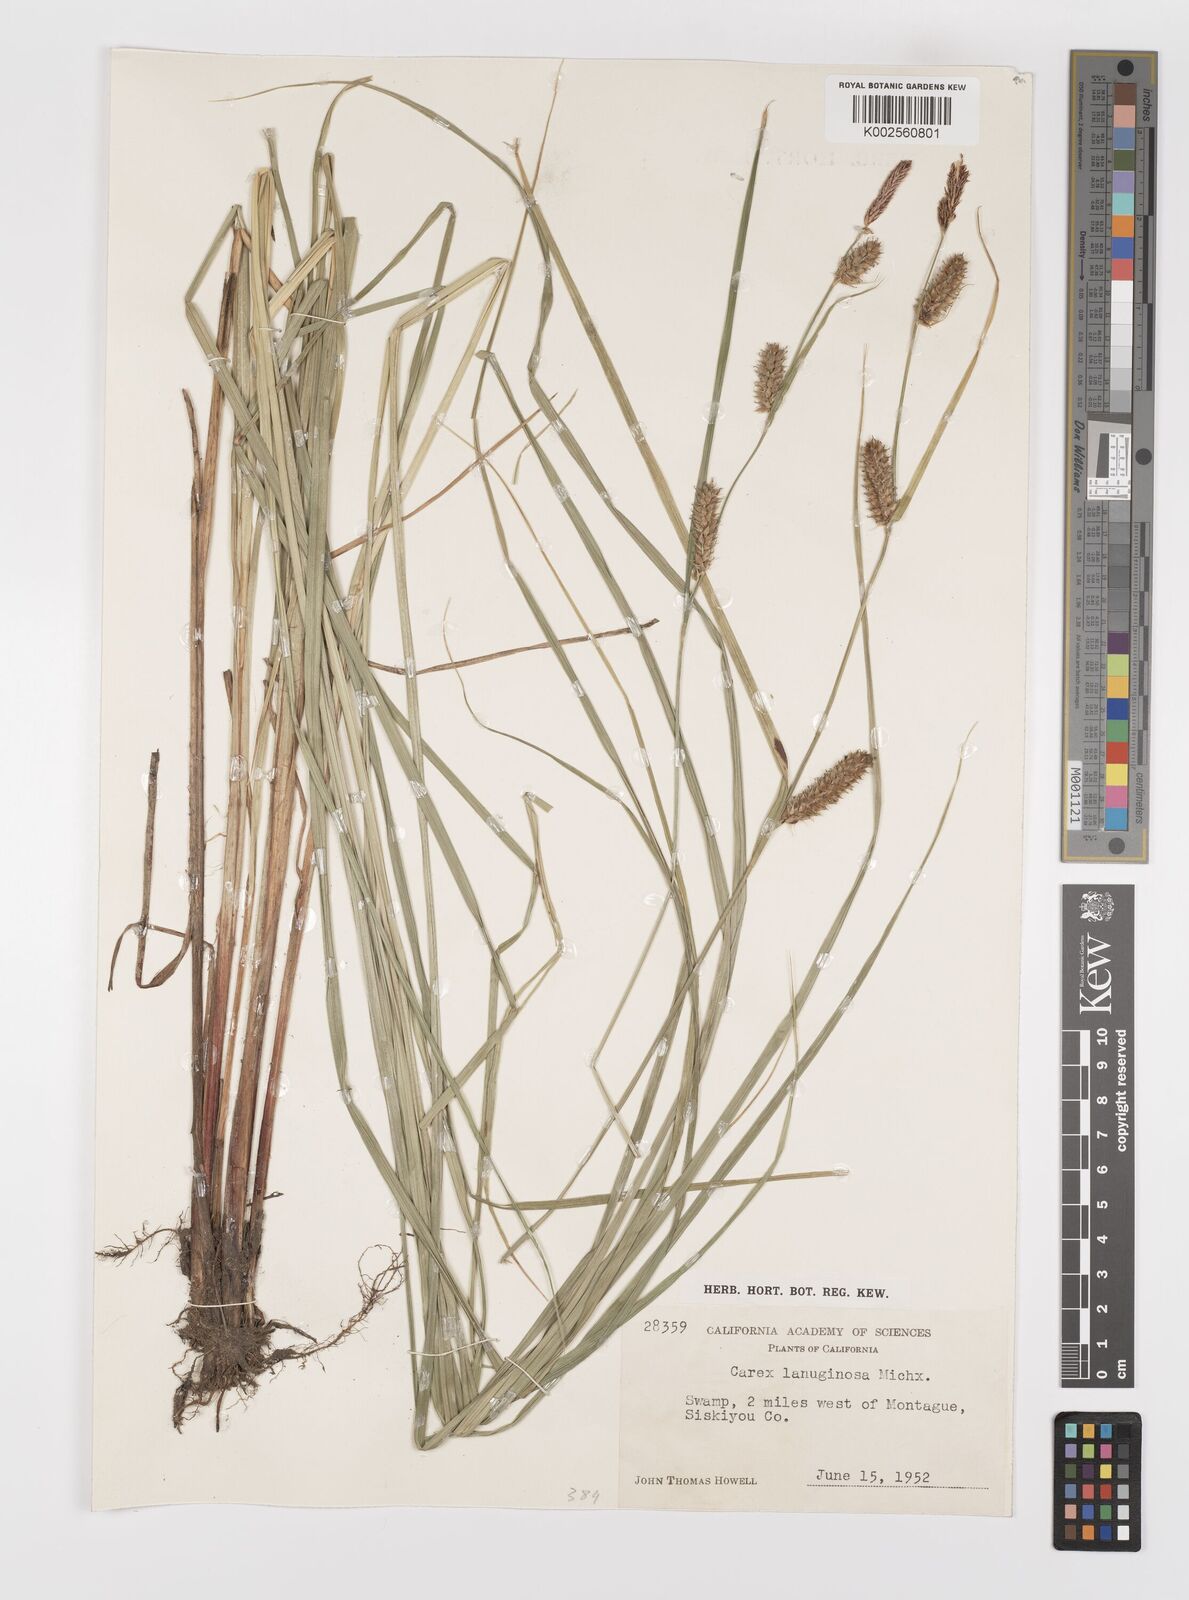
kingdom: Plantae
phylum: Tracheophyta
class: Liliopsida
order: Poales
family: Cyperaceae
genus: Carex
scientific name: Carex lasiocarpa
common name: Slender sedge
